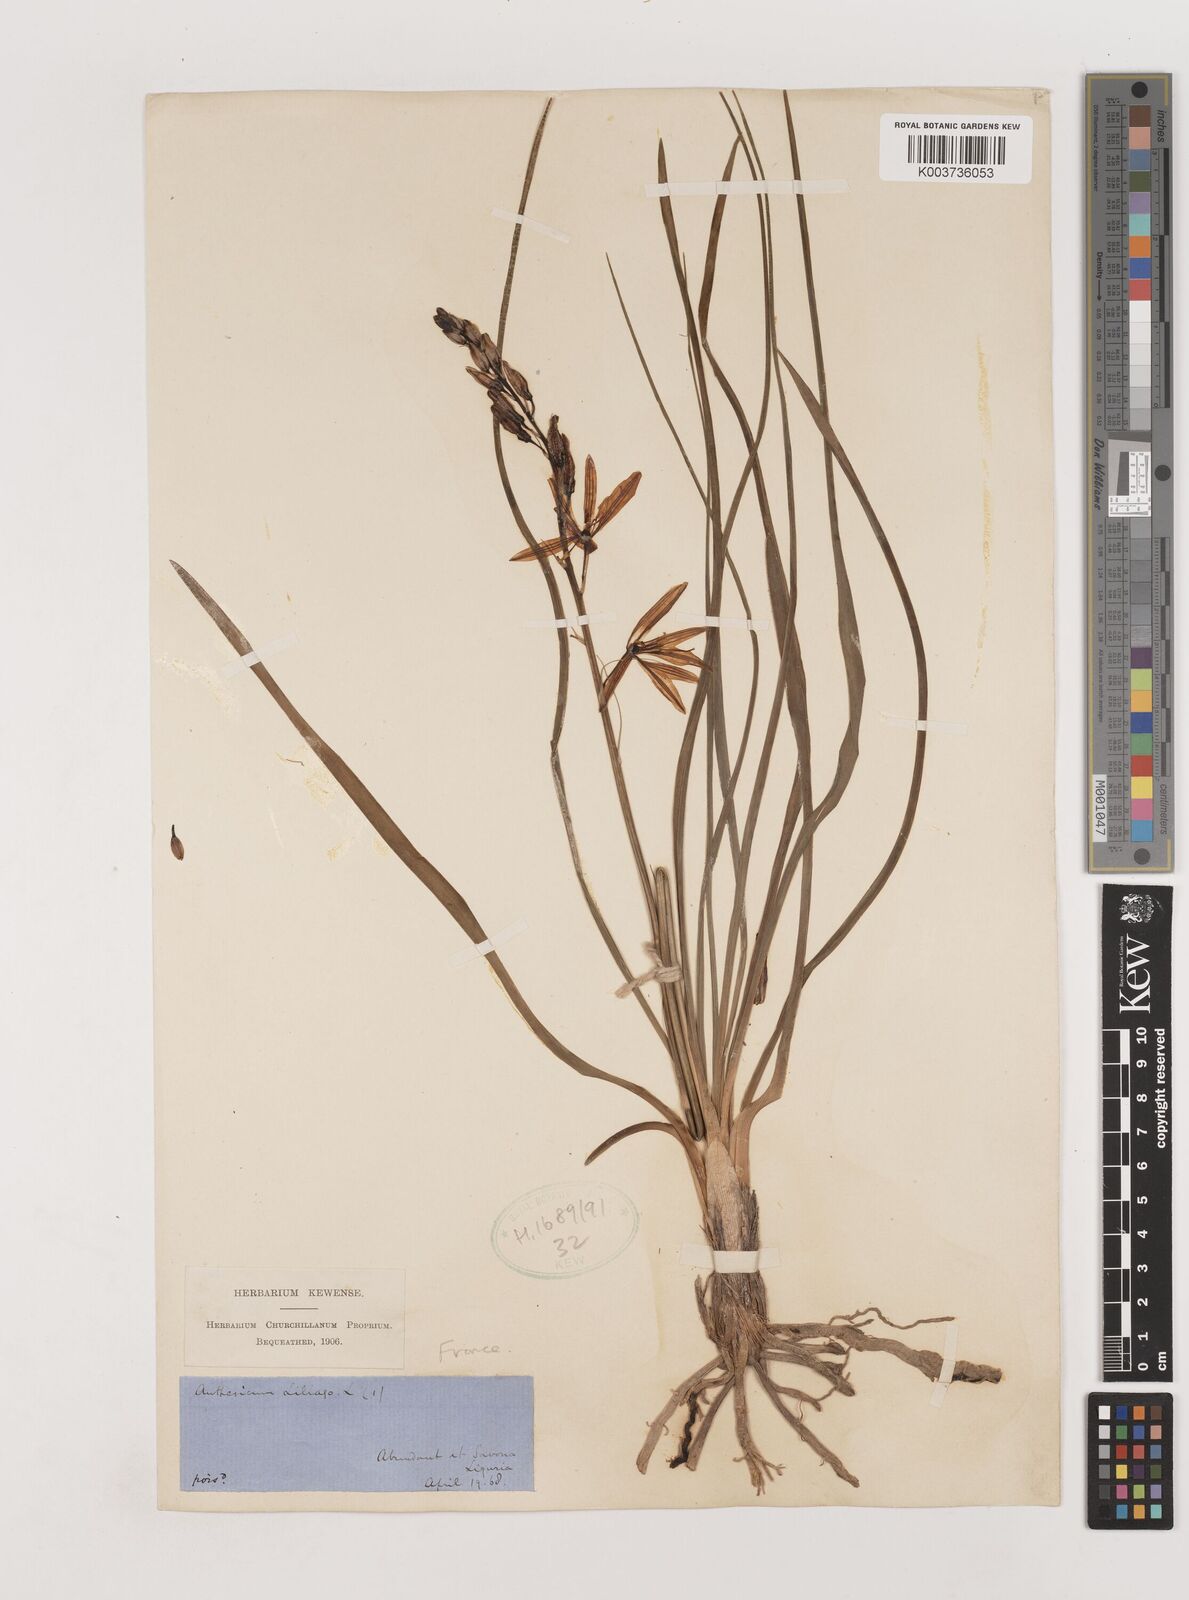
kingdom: Plantae
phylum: Tracheophyta
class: Liliopsida
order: Asparagales
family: Asparagaceae
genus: Anthericum
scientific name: Anthericum liliago
